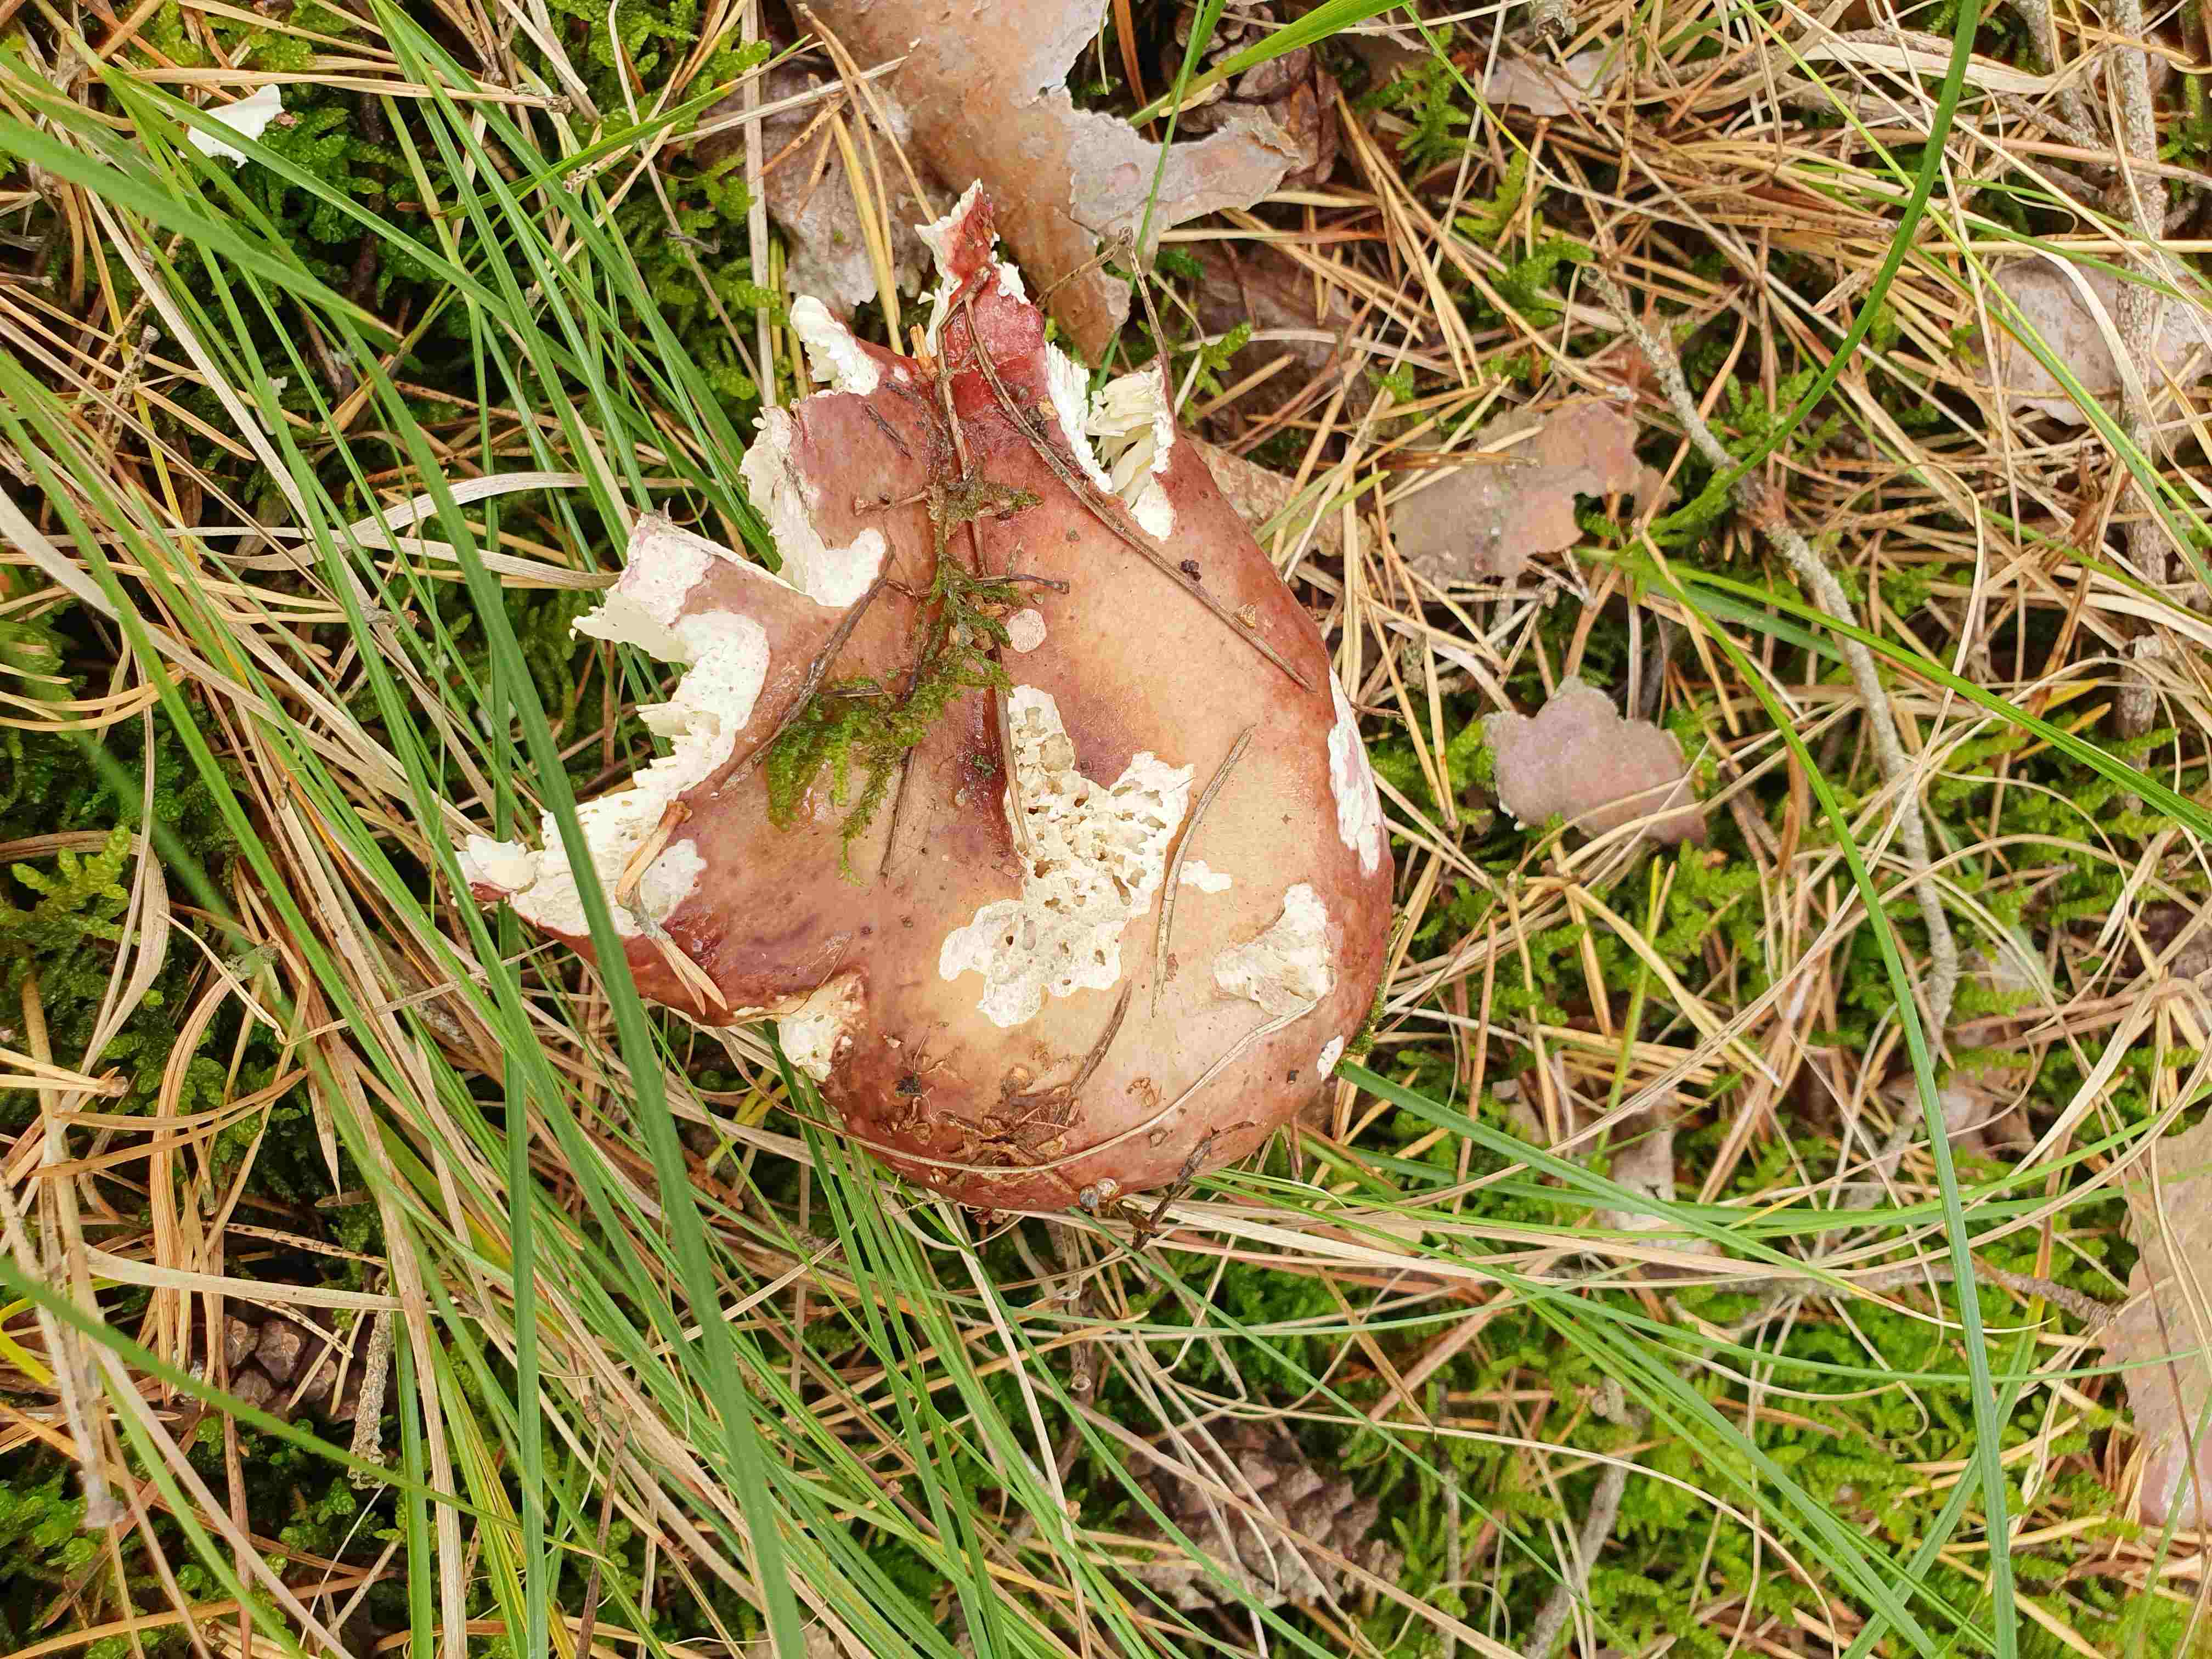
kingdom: Fungi
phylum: Basidiomycota
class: Agaricomycetes
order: Russulales
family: Russulaceae
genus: Russula
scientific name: Russula paludosa
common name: prægtig skørhat
